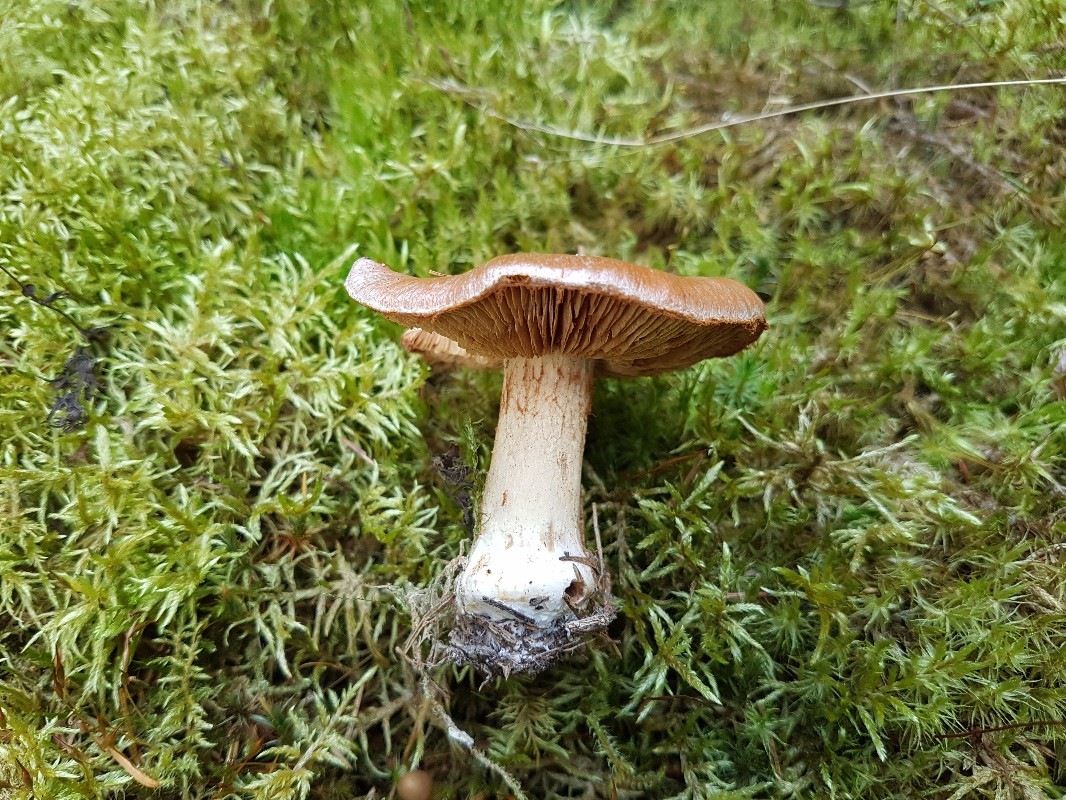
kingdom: Fungi
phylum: Basidiomycota
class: Agaricomycetes
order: Agaricales
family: Cortinariaceae
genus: Thaxterogaster
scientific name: Thaxterogaster multiformis
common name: honning-slørhat
